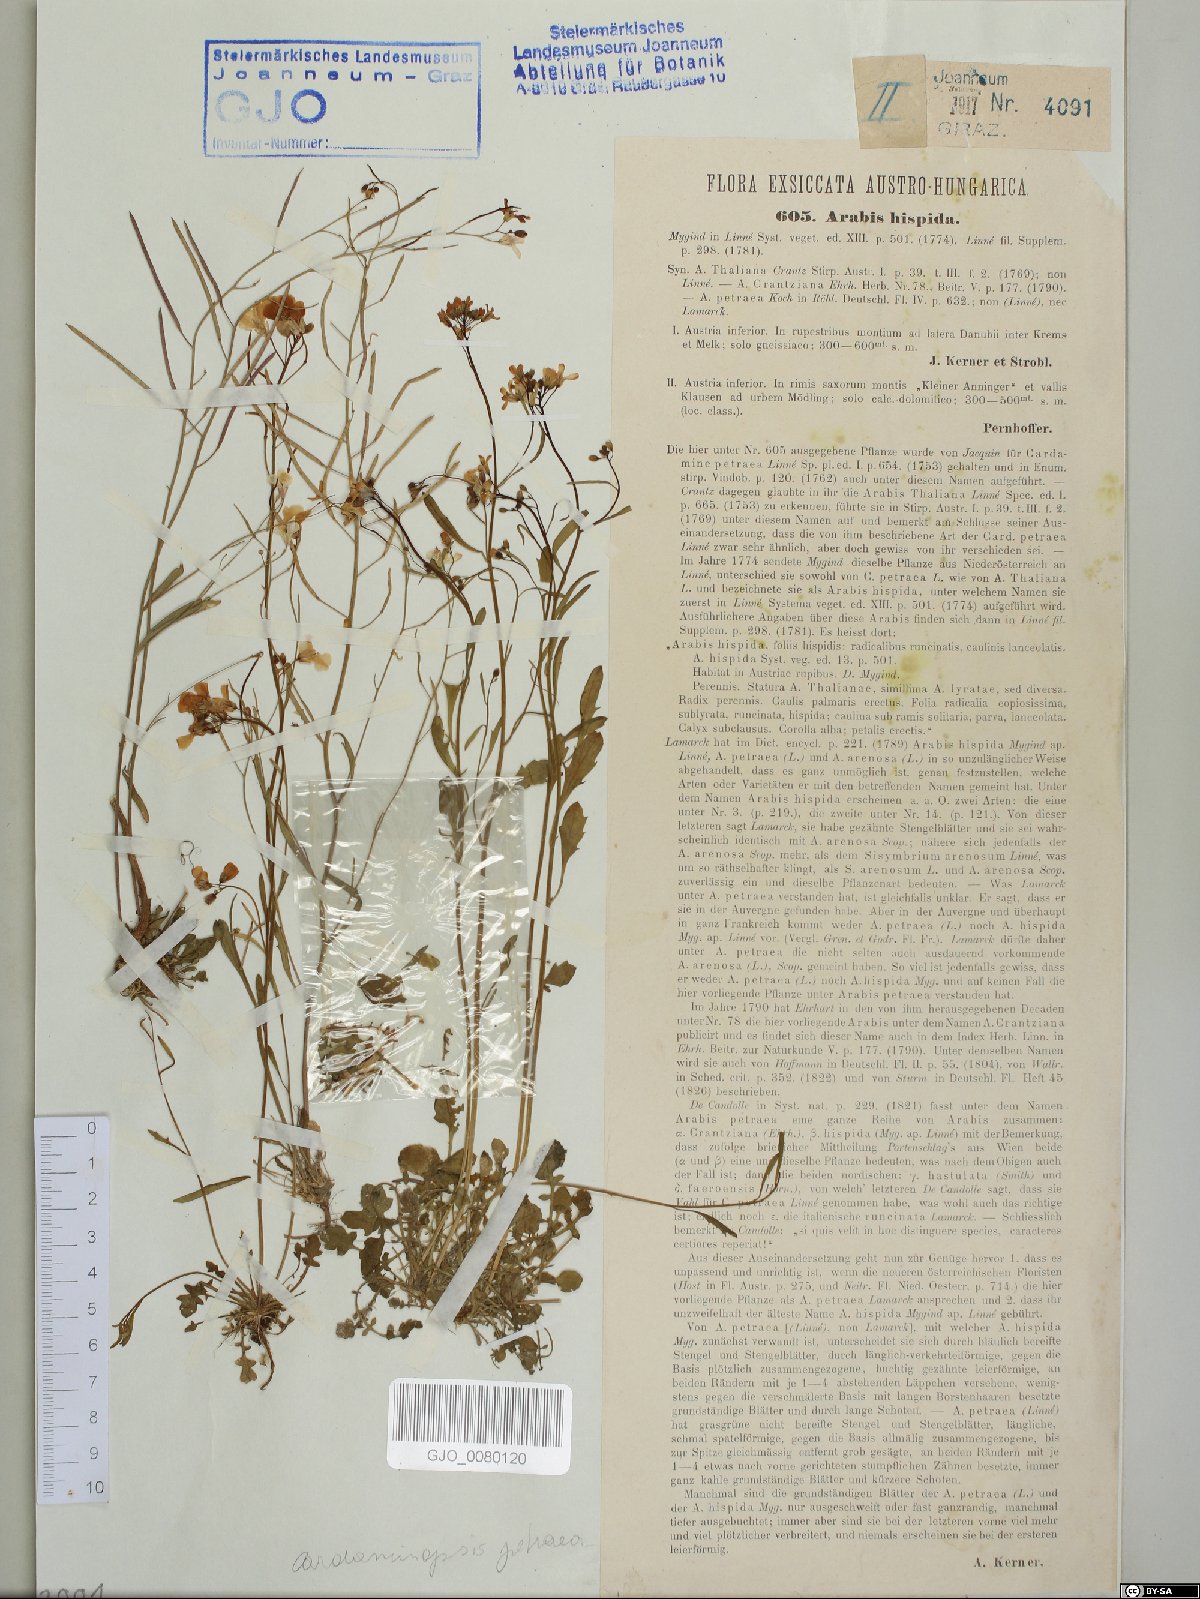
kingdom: Plantae
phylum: Tracheophyta
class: Magnoliopsida
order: Brassicales
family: Brassicaceae
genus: Arabidopsis
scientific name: Arabidopsis lyrata
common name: Lyrate rockcress
